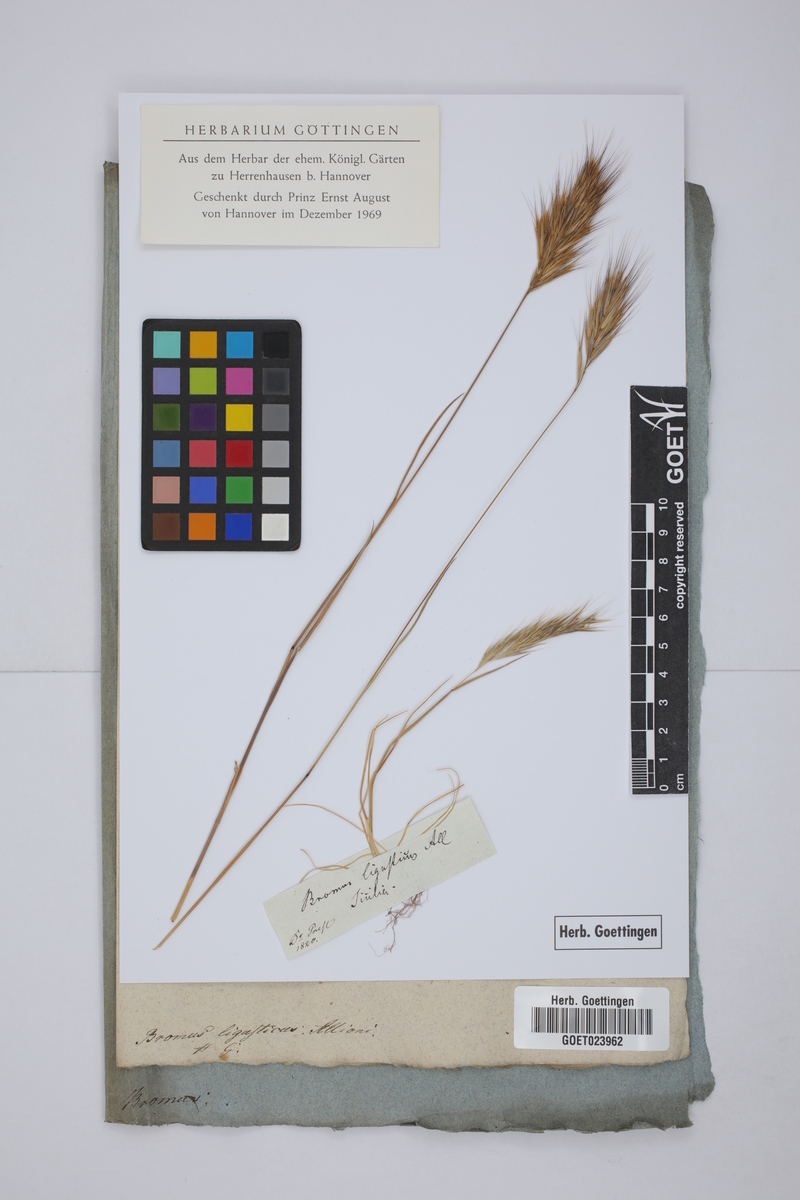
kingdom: Plantae
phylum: Tracheophyta
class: Liliopsida
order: Poales
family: Poaceae
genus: Festuca
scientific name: Festuca ligustica
